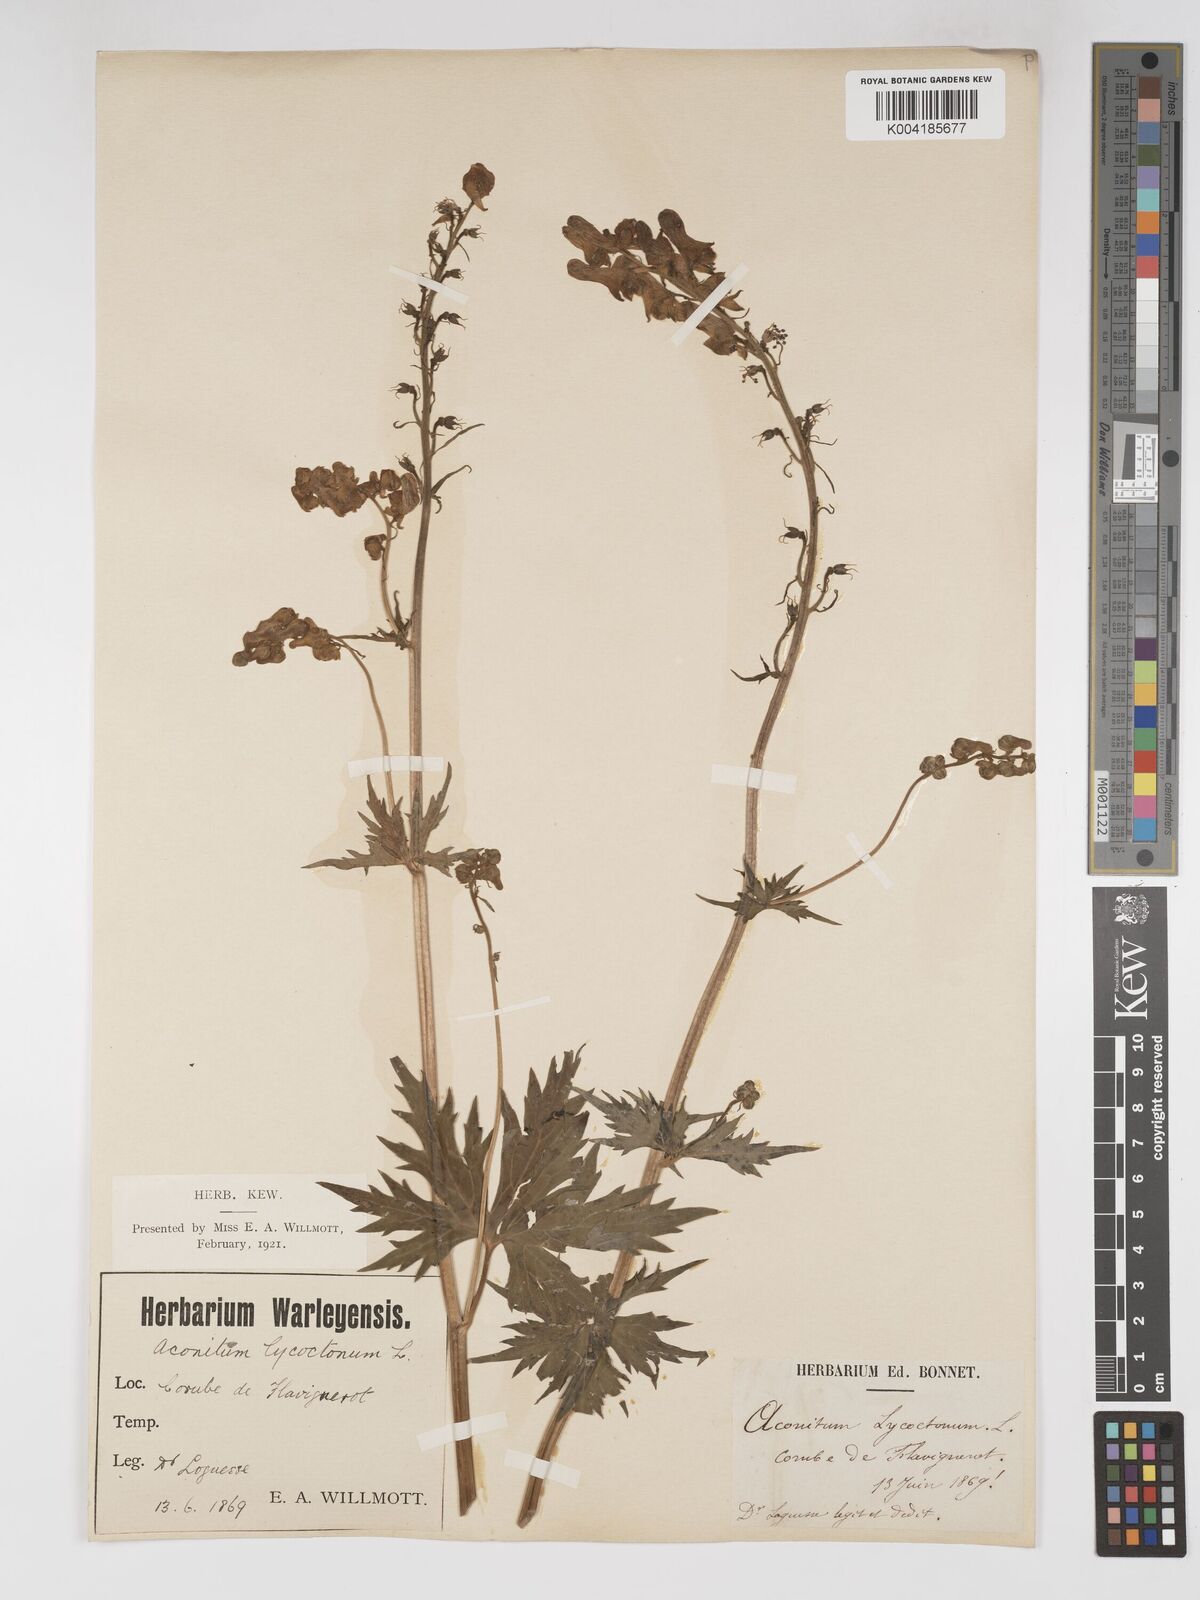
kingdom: Plantae
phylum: Tracheophyta
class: Magnoliopsida
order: Ranunculales
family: Ranunculaceae
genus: Aconitum
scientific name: Aconitum lycoctonum
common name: Wolf's-bane
